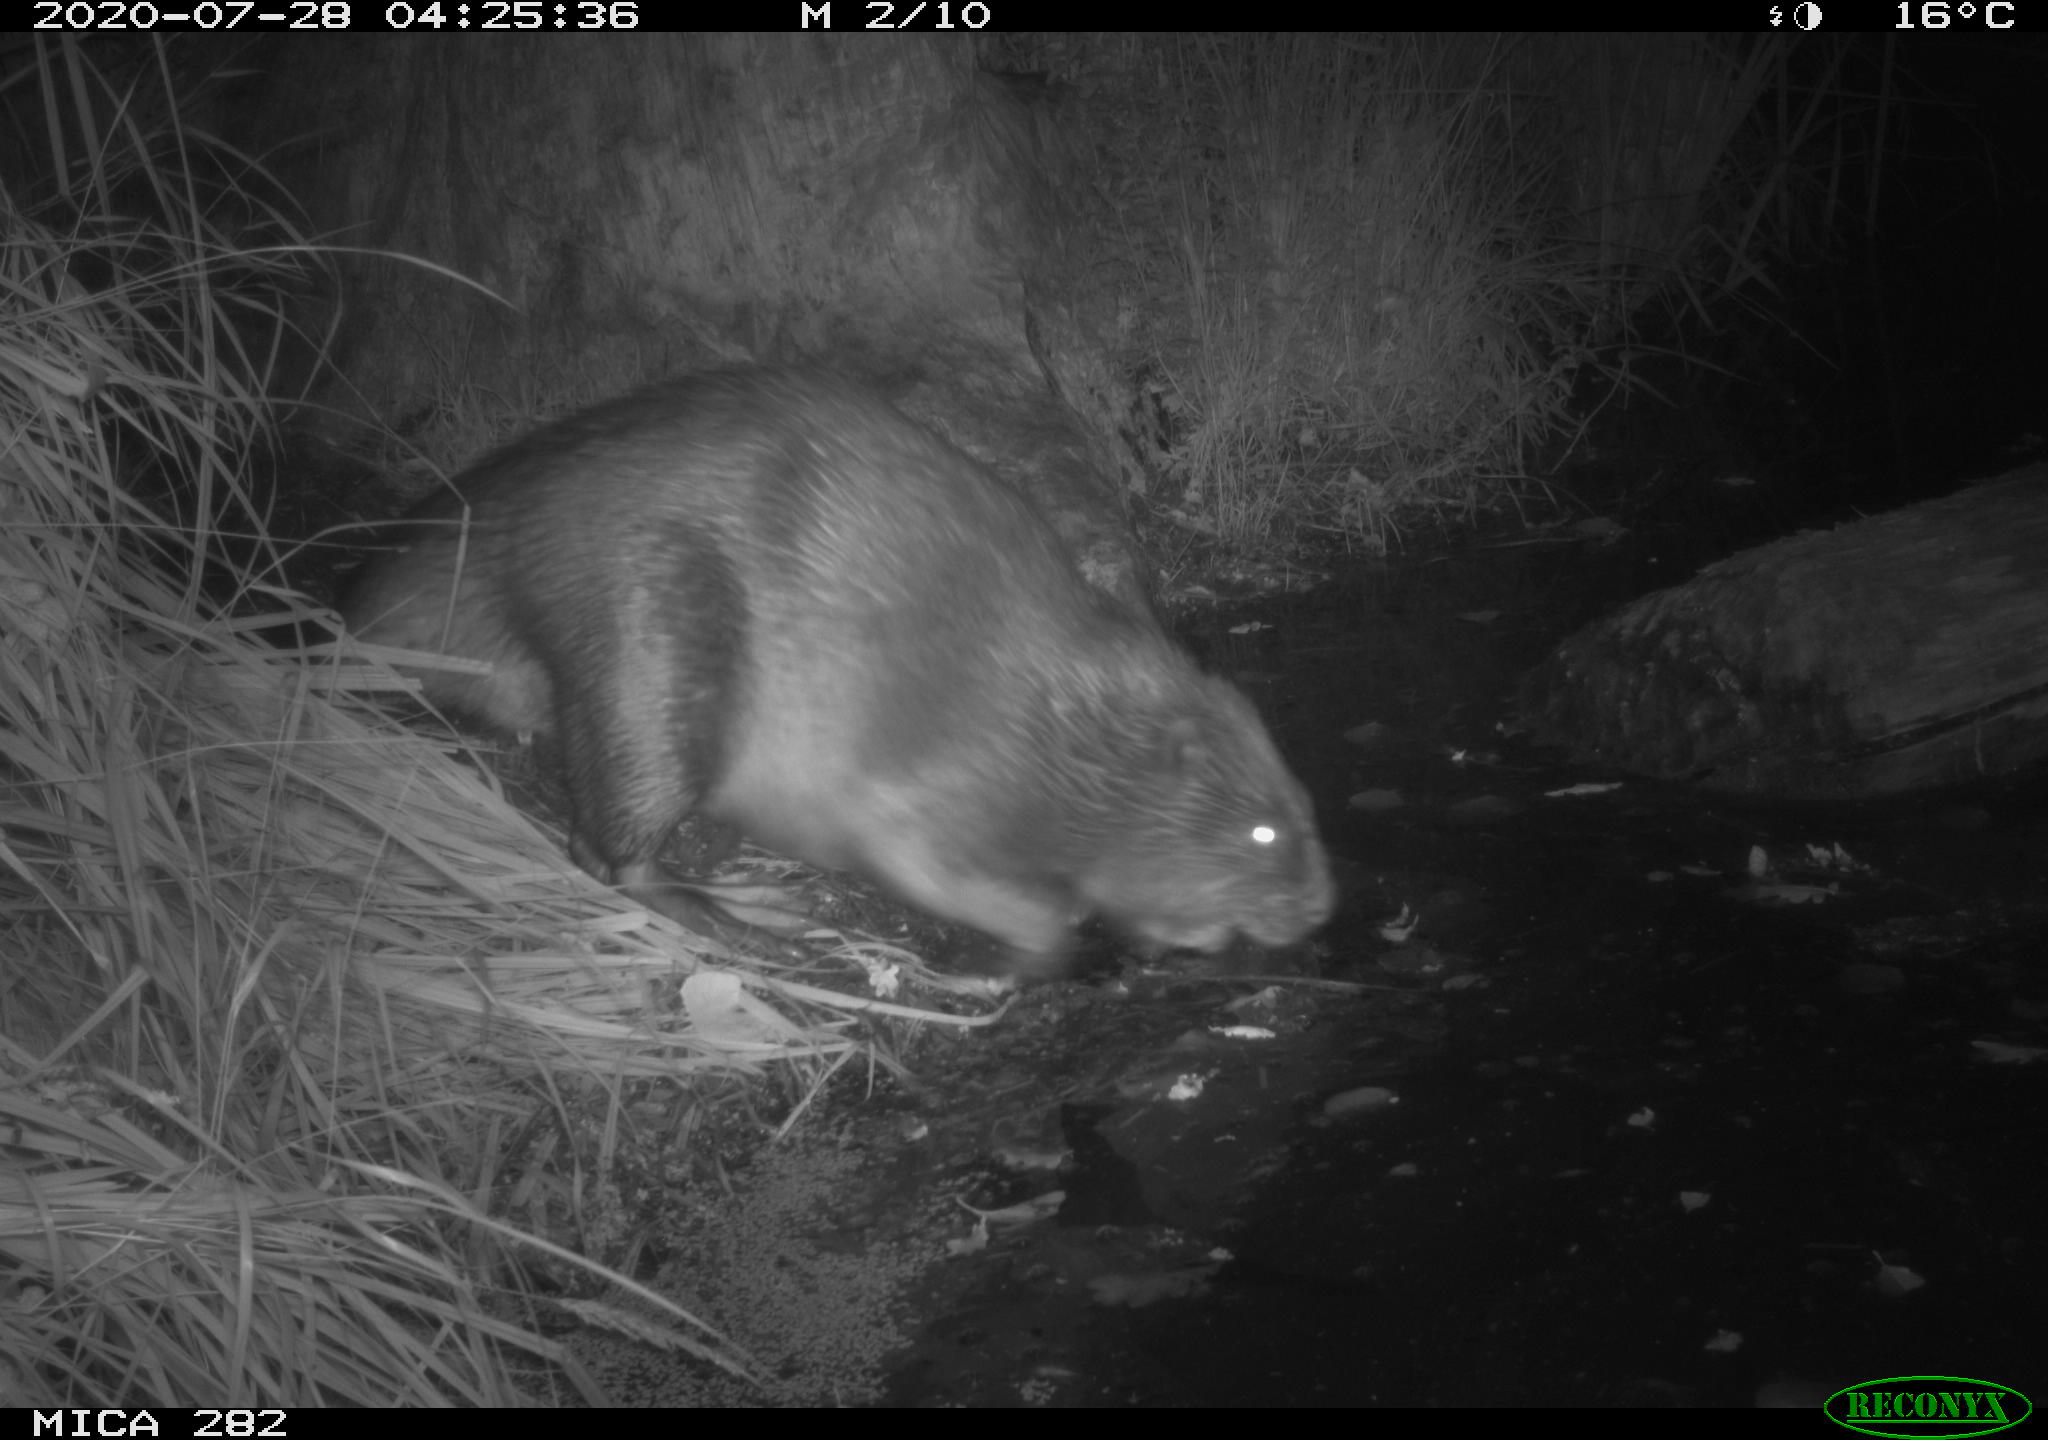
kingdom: Animalia
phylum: Chordata
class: Mammalia
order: Rodentia
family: Castoridae
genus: Castor
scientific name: Castor fiber
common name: Eurasian beaver
